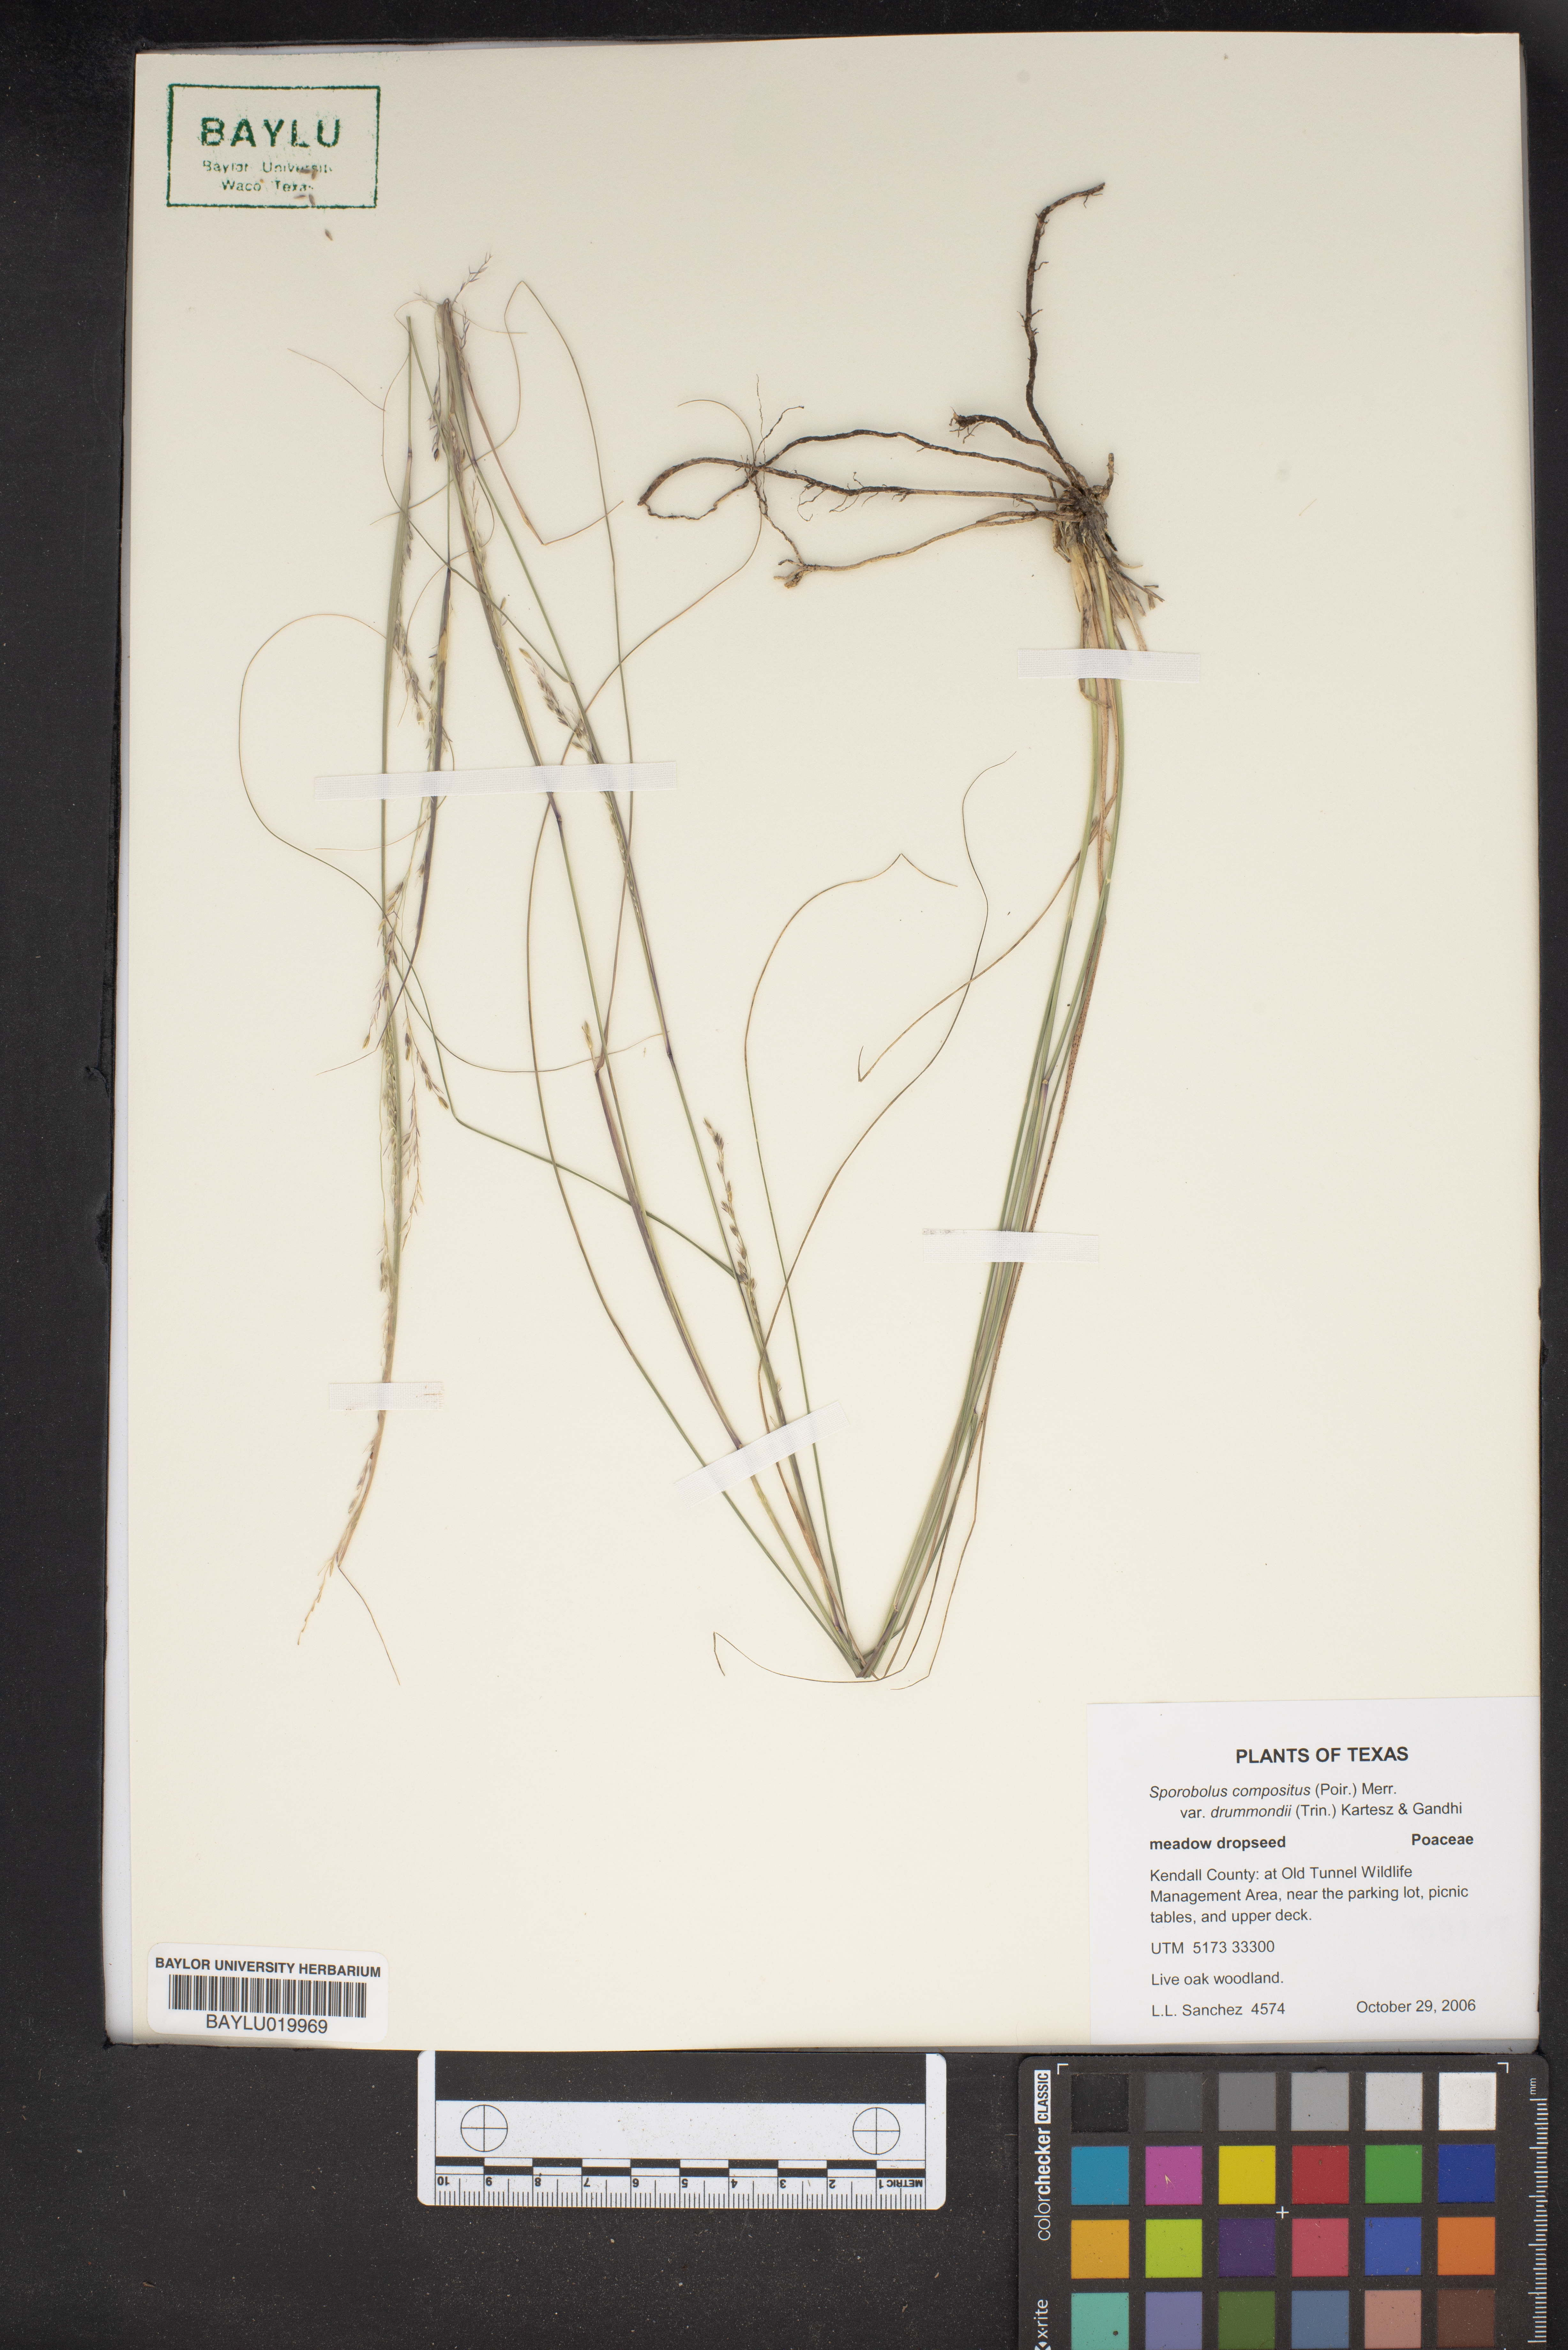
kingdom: Plantae
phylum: Tracheophyta
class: Liliopsida
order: Poales
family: Poaceae
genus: Sporobolus
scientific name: Sporobolus compositus
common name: Rough dropseed
